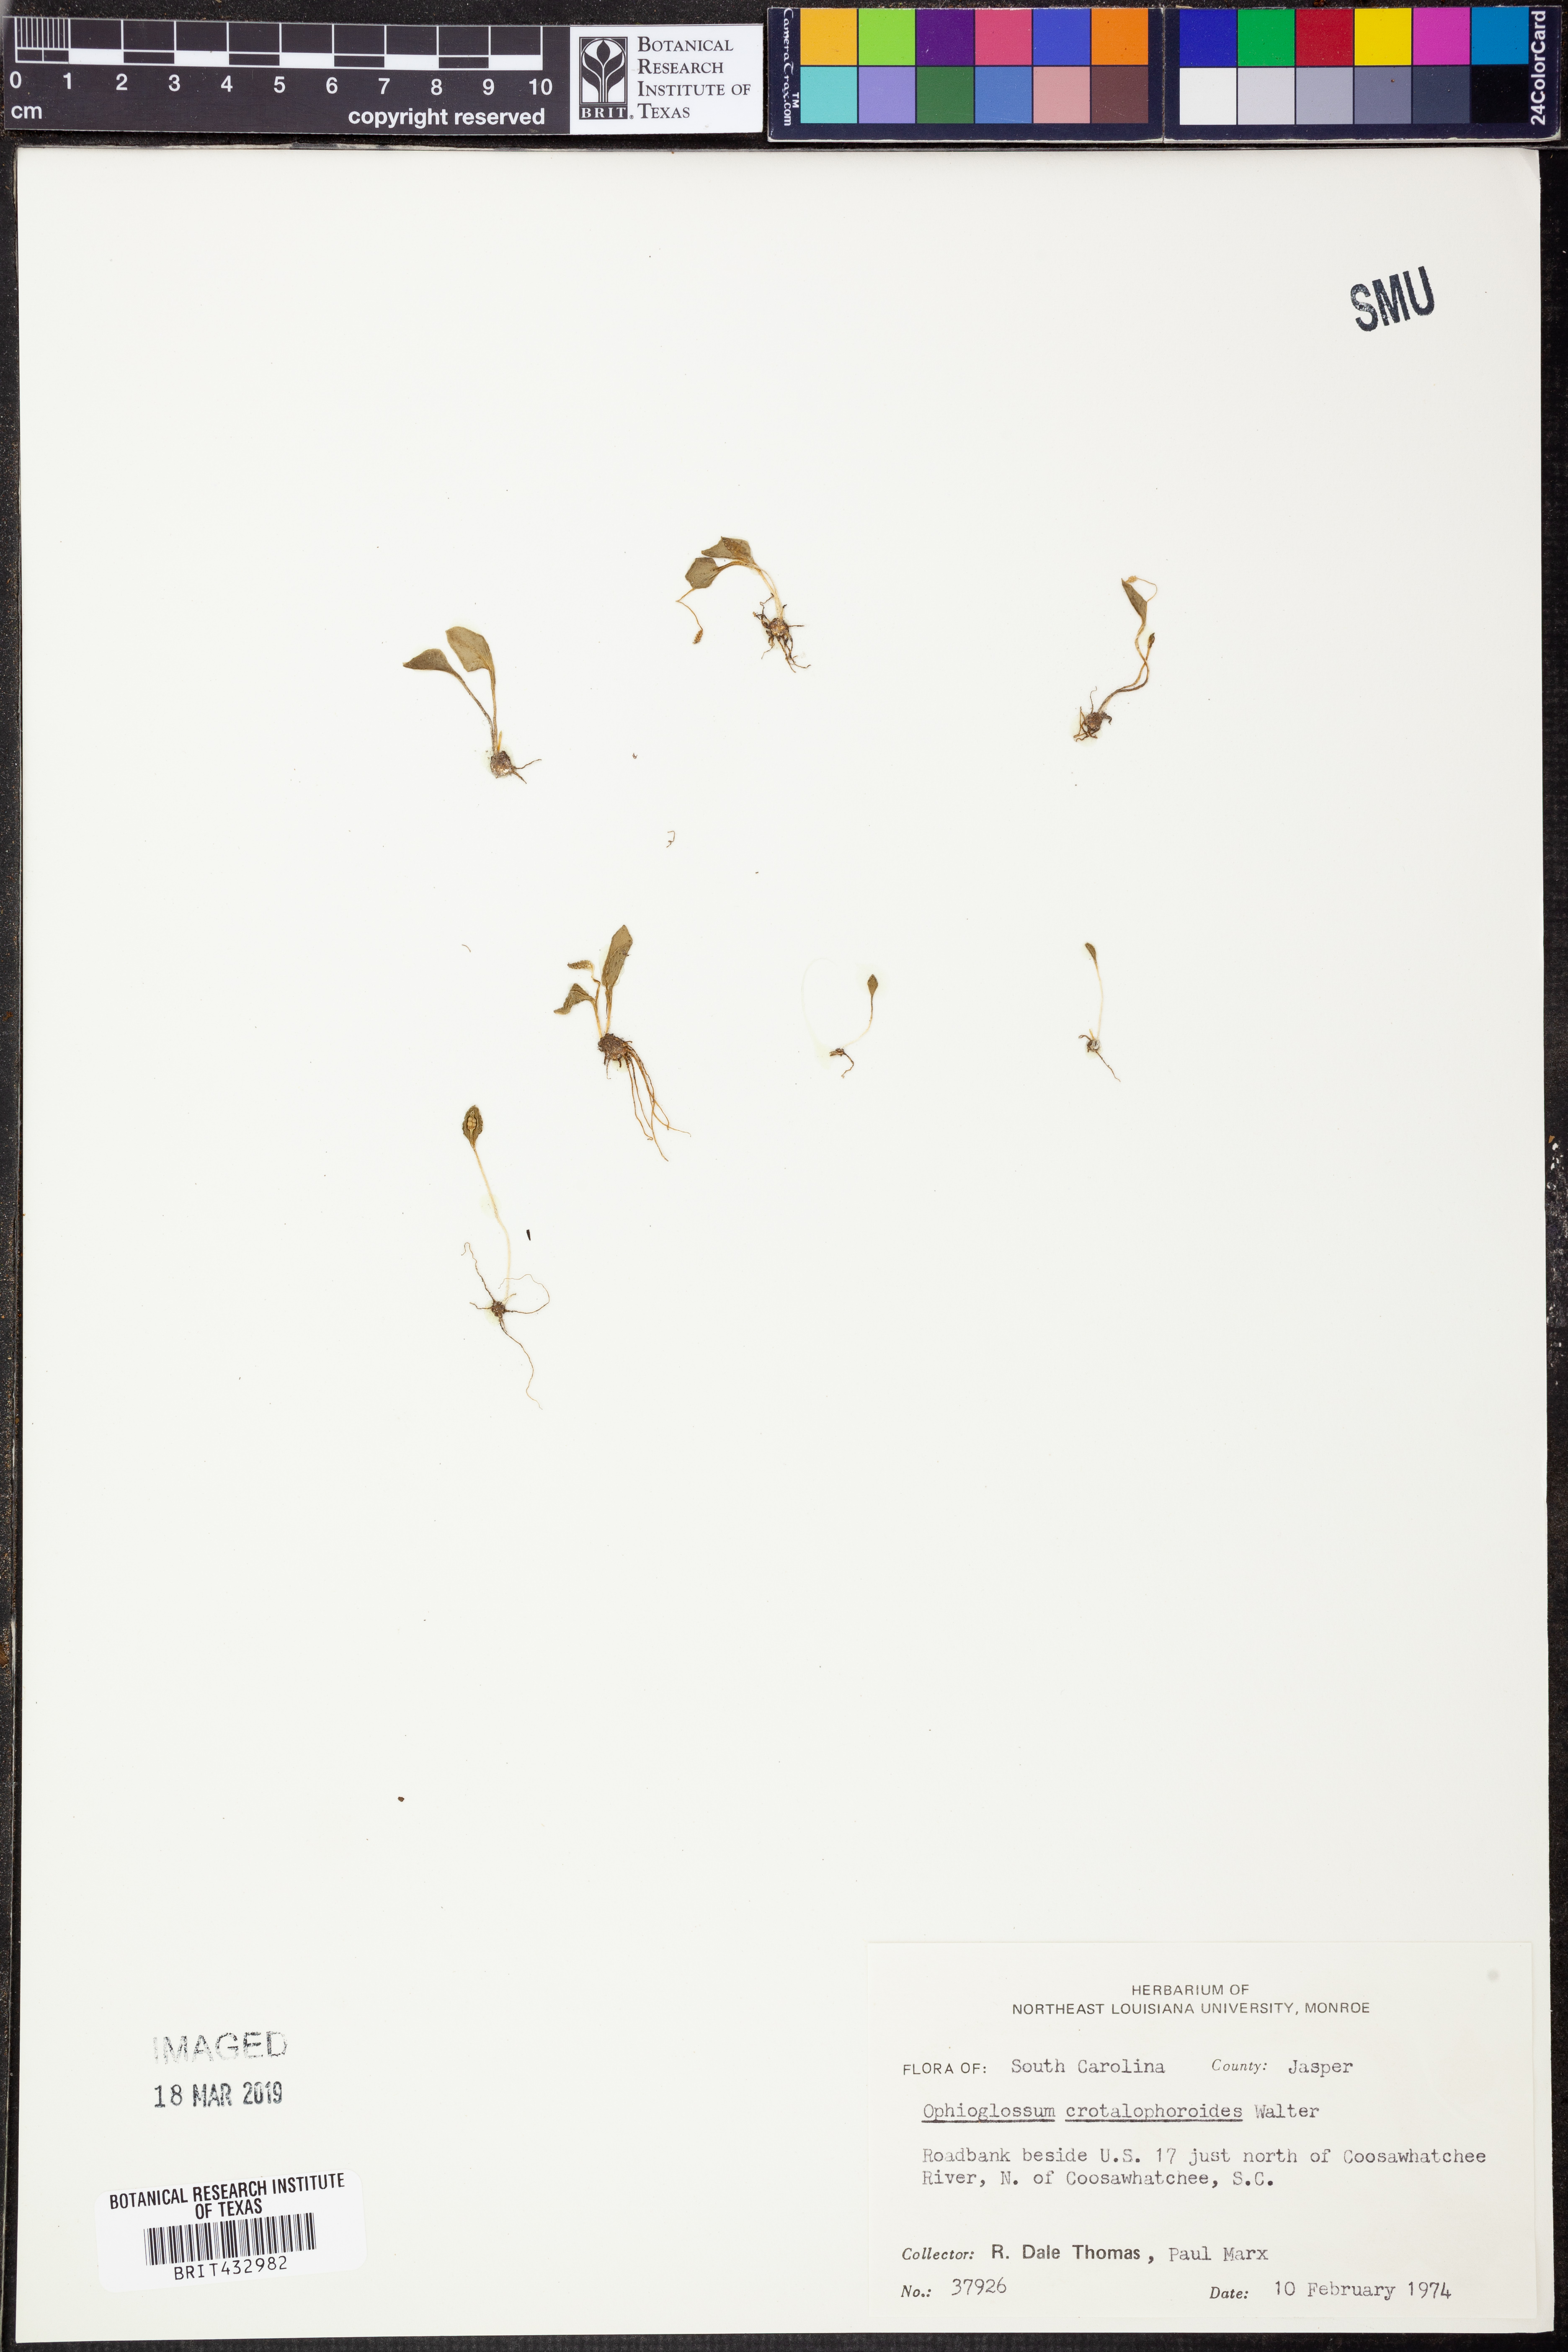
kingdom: Plantae
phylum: Tracheophyta
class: Polypodiopsida
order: Ophioglossales
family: Ophioglossaceae
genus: Ophioglossum
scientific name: Ophioglossum crotalophoroides
